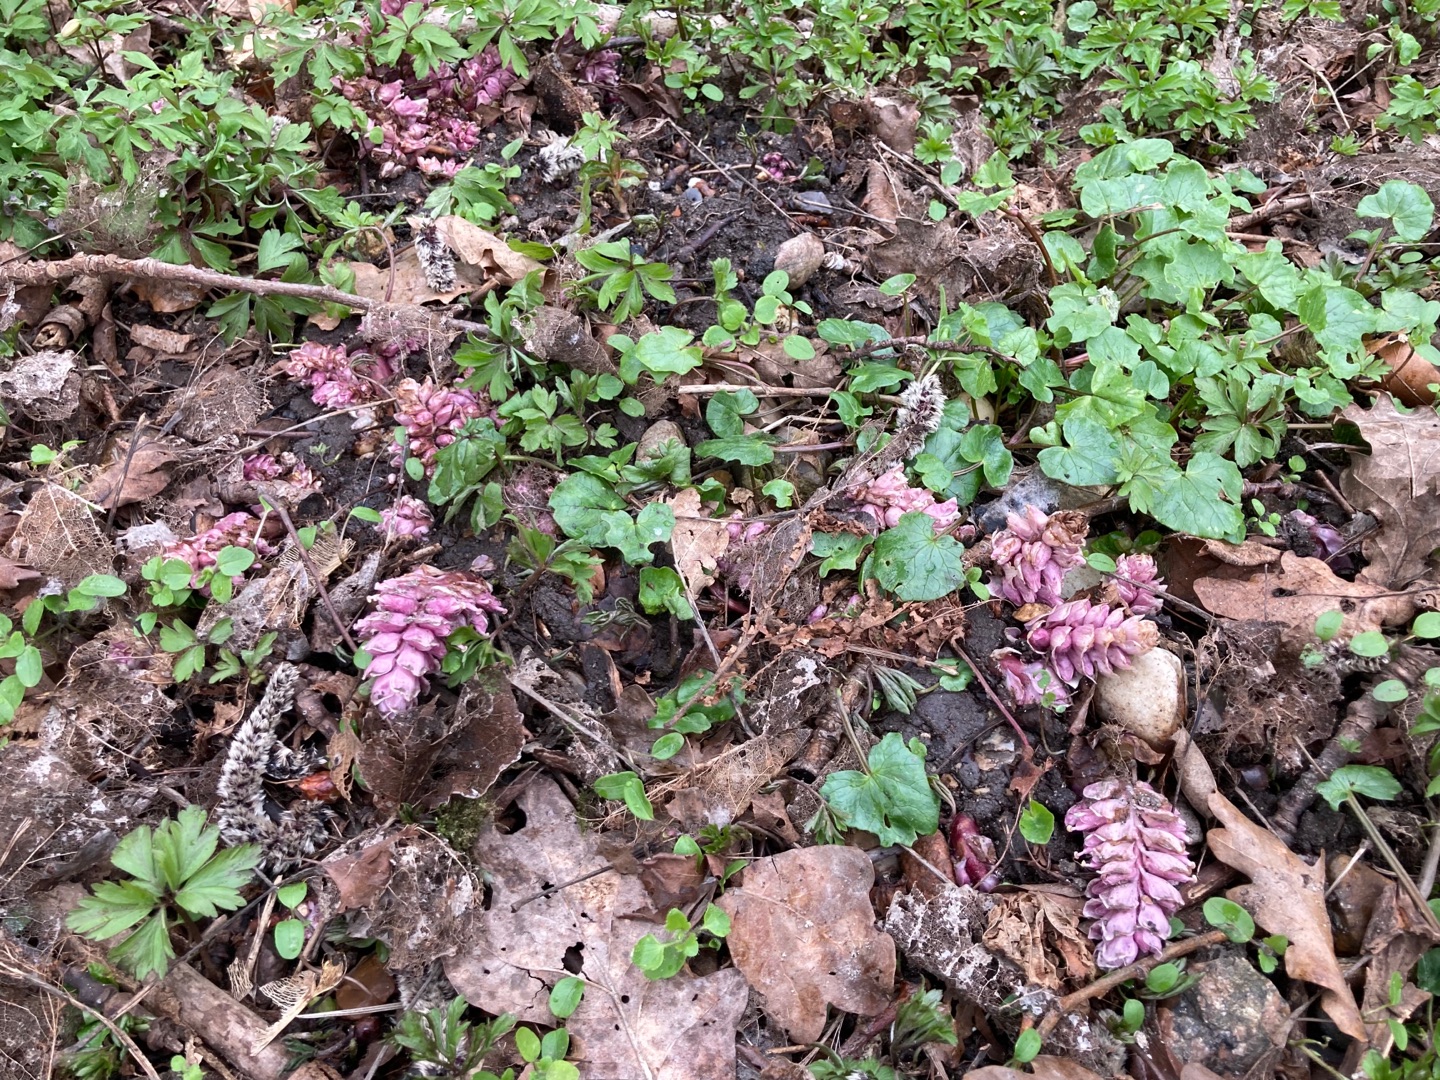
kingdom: Plantae
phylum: Tracheophyta
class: Magnoliopsida
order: Lamiales
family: Orobanchaceae
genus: Lathraea
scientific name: Lathraea squamaria
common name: Skælrod
